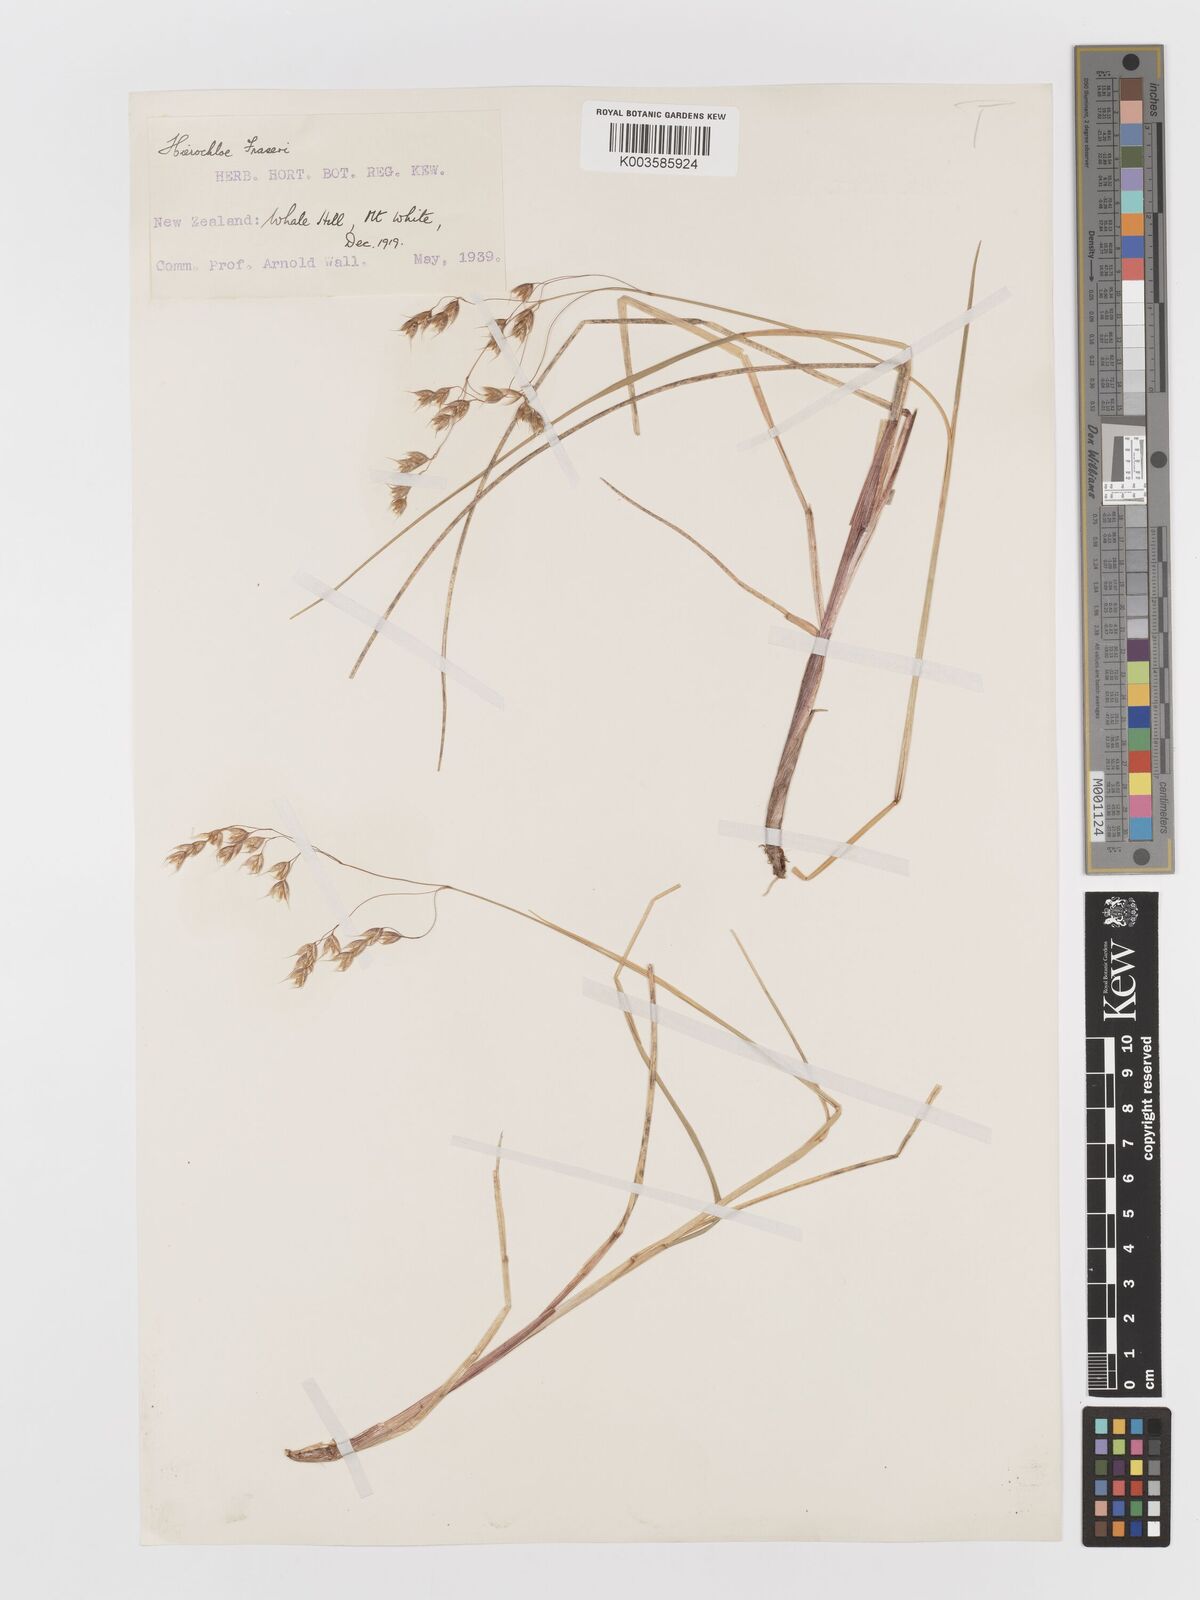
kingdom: Plantae
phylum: Tracheophyta
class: Liliopsida
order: Poales
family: Poaceae
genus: Anthoxanthum
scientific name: Anthoxanthum novae-zelandiae
